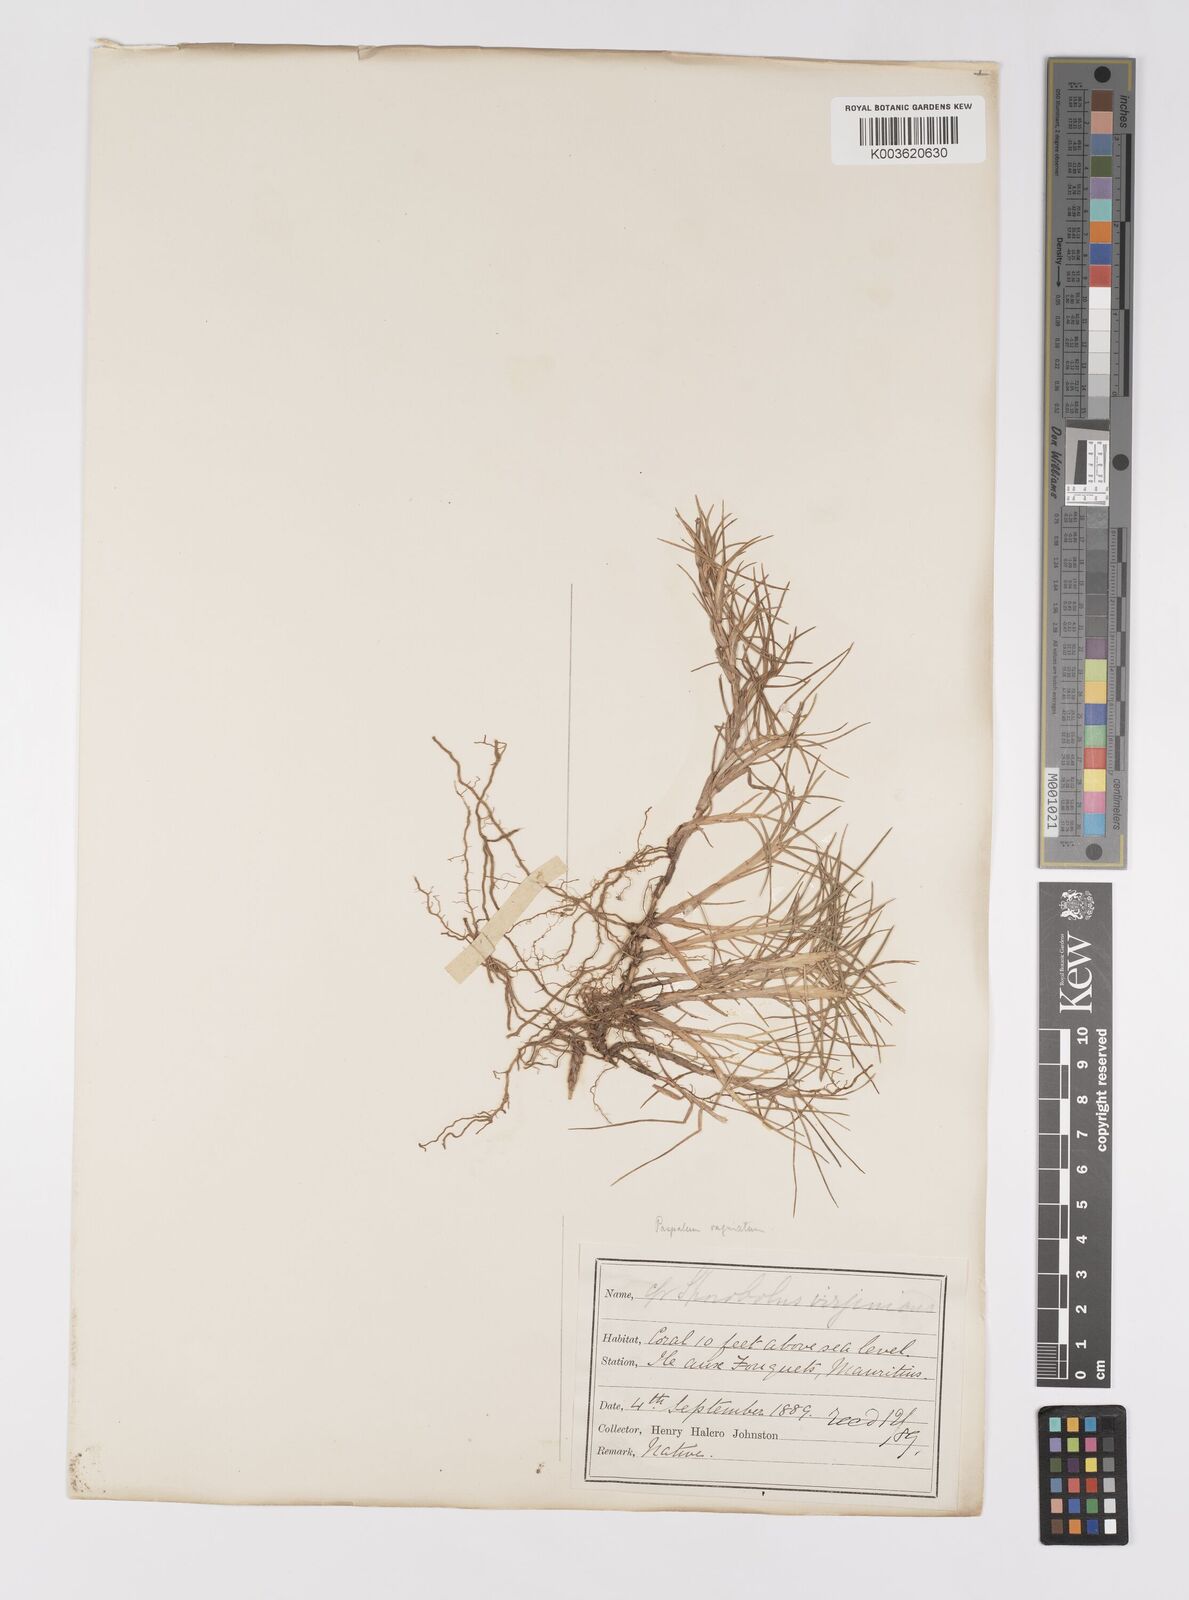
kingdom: Plantae
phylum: Tracheophyta
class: Liliopsida
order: Poales
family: Poaceae
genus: Paspalum
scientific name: Paspalum vaginatum
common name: Seashore paspalum
